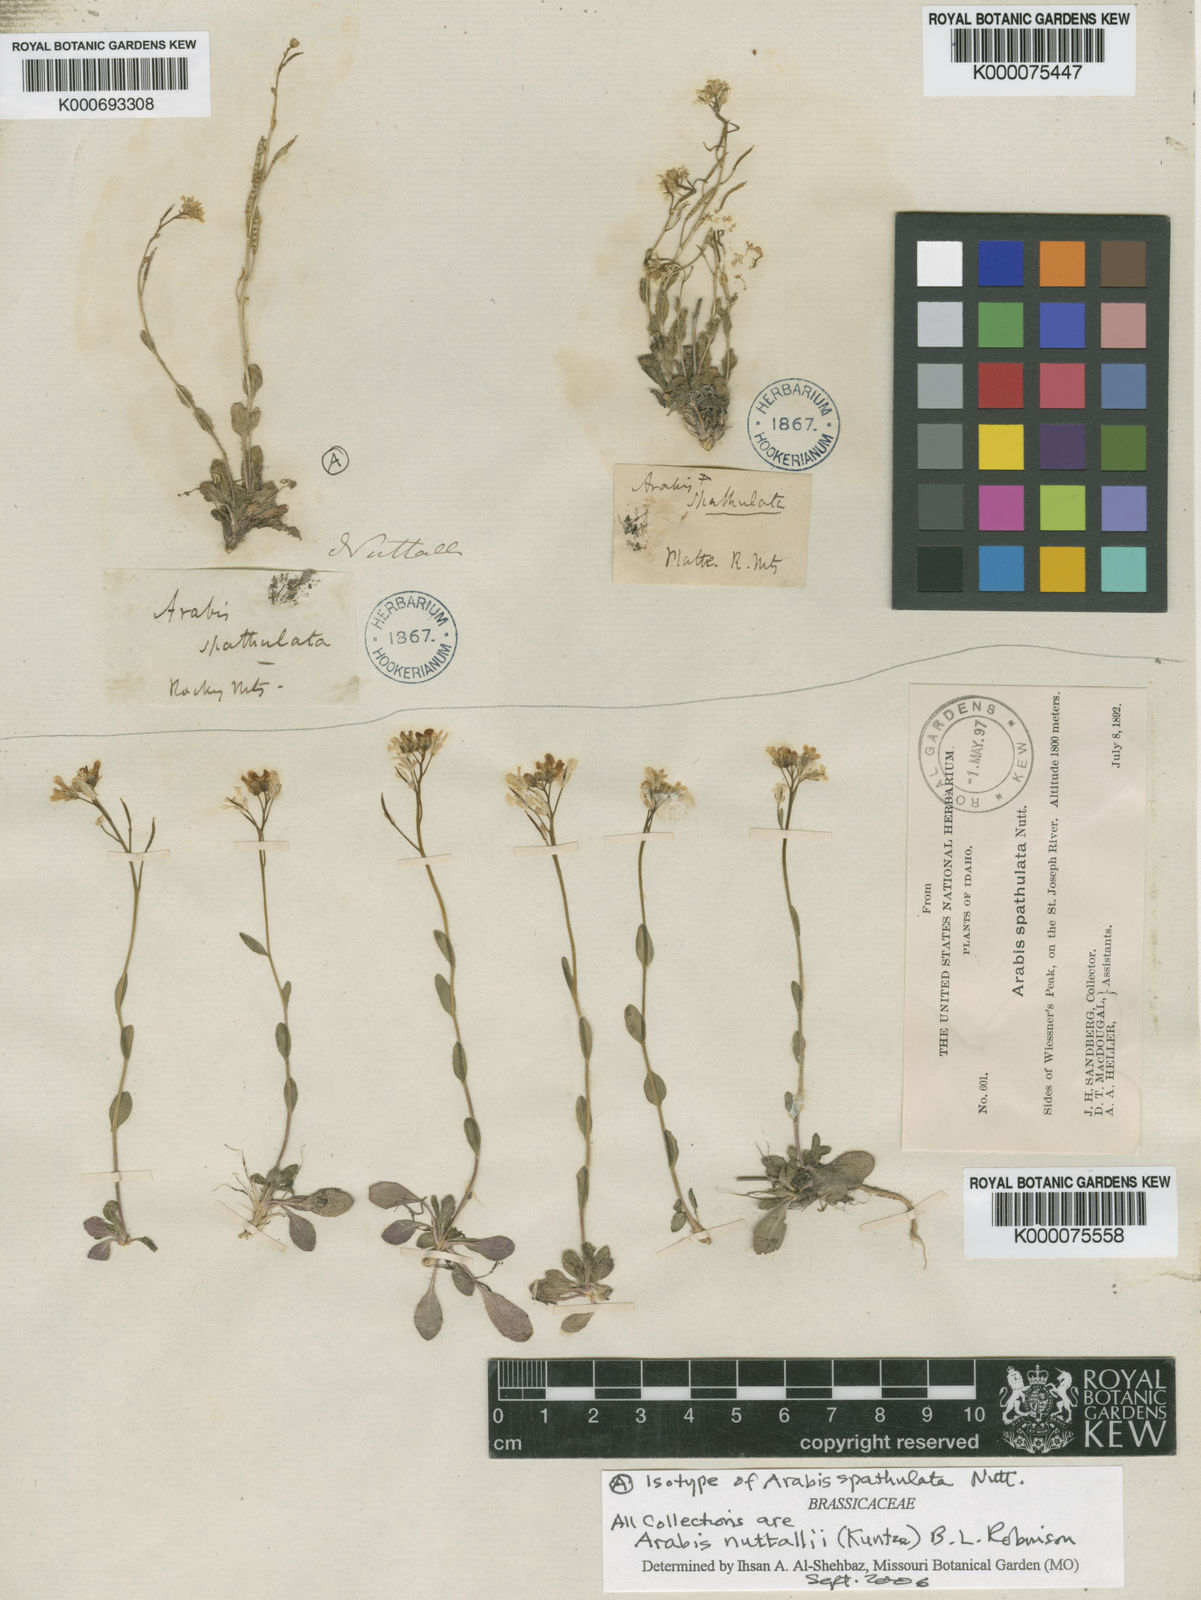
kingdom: Plantae
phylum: Tracheophyta
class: Magnoliopsida
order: Brassicales
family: Brassicaceae
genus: Arabis
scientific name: Arabis nuttallii
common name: Nuttall's rockcress
